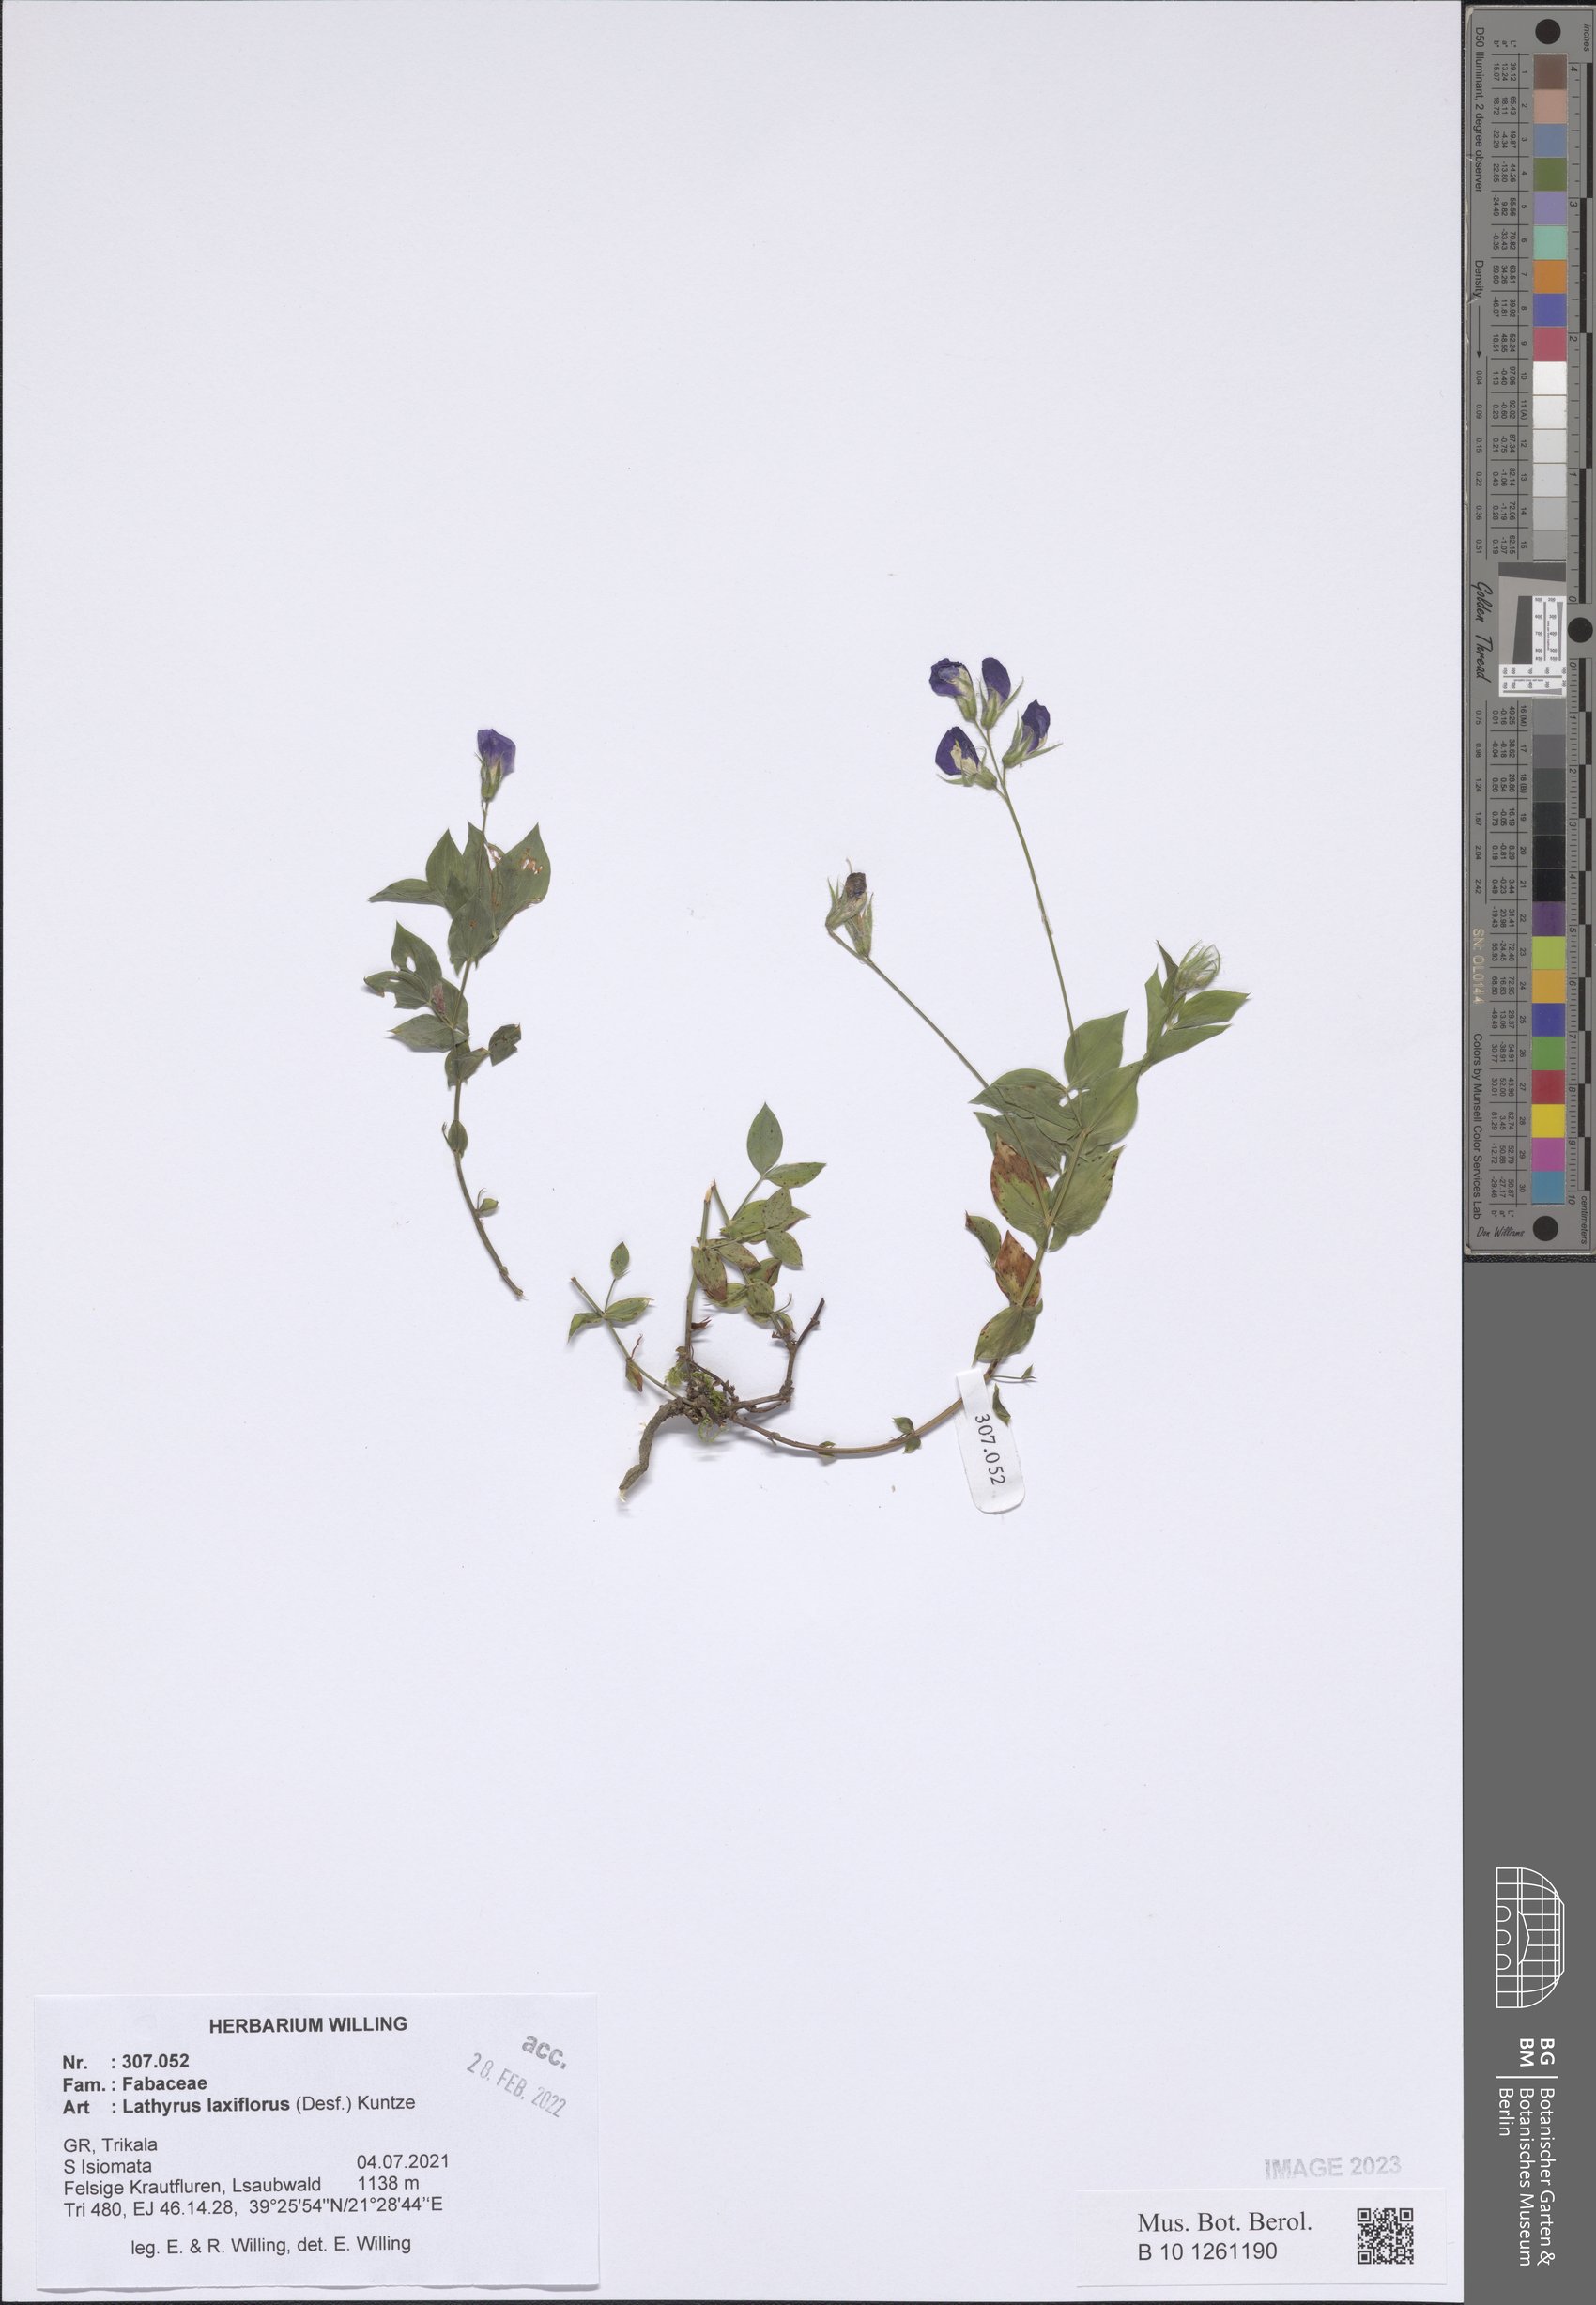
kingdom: Plantae
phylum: Tracheophyta
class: Magnoliopsida
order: Fabales
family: Fabaceae
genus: Lathyrus
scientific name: Lathyrus laxiflorus
